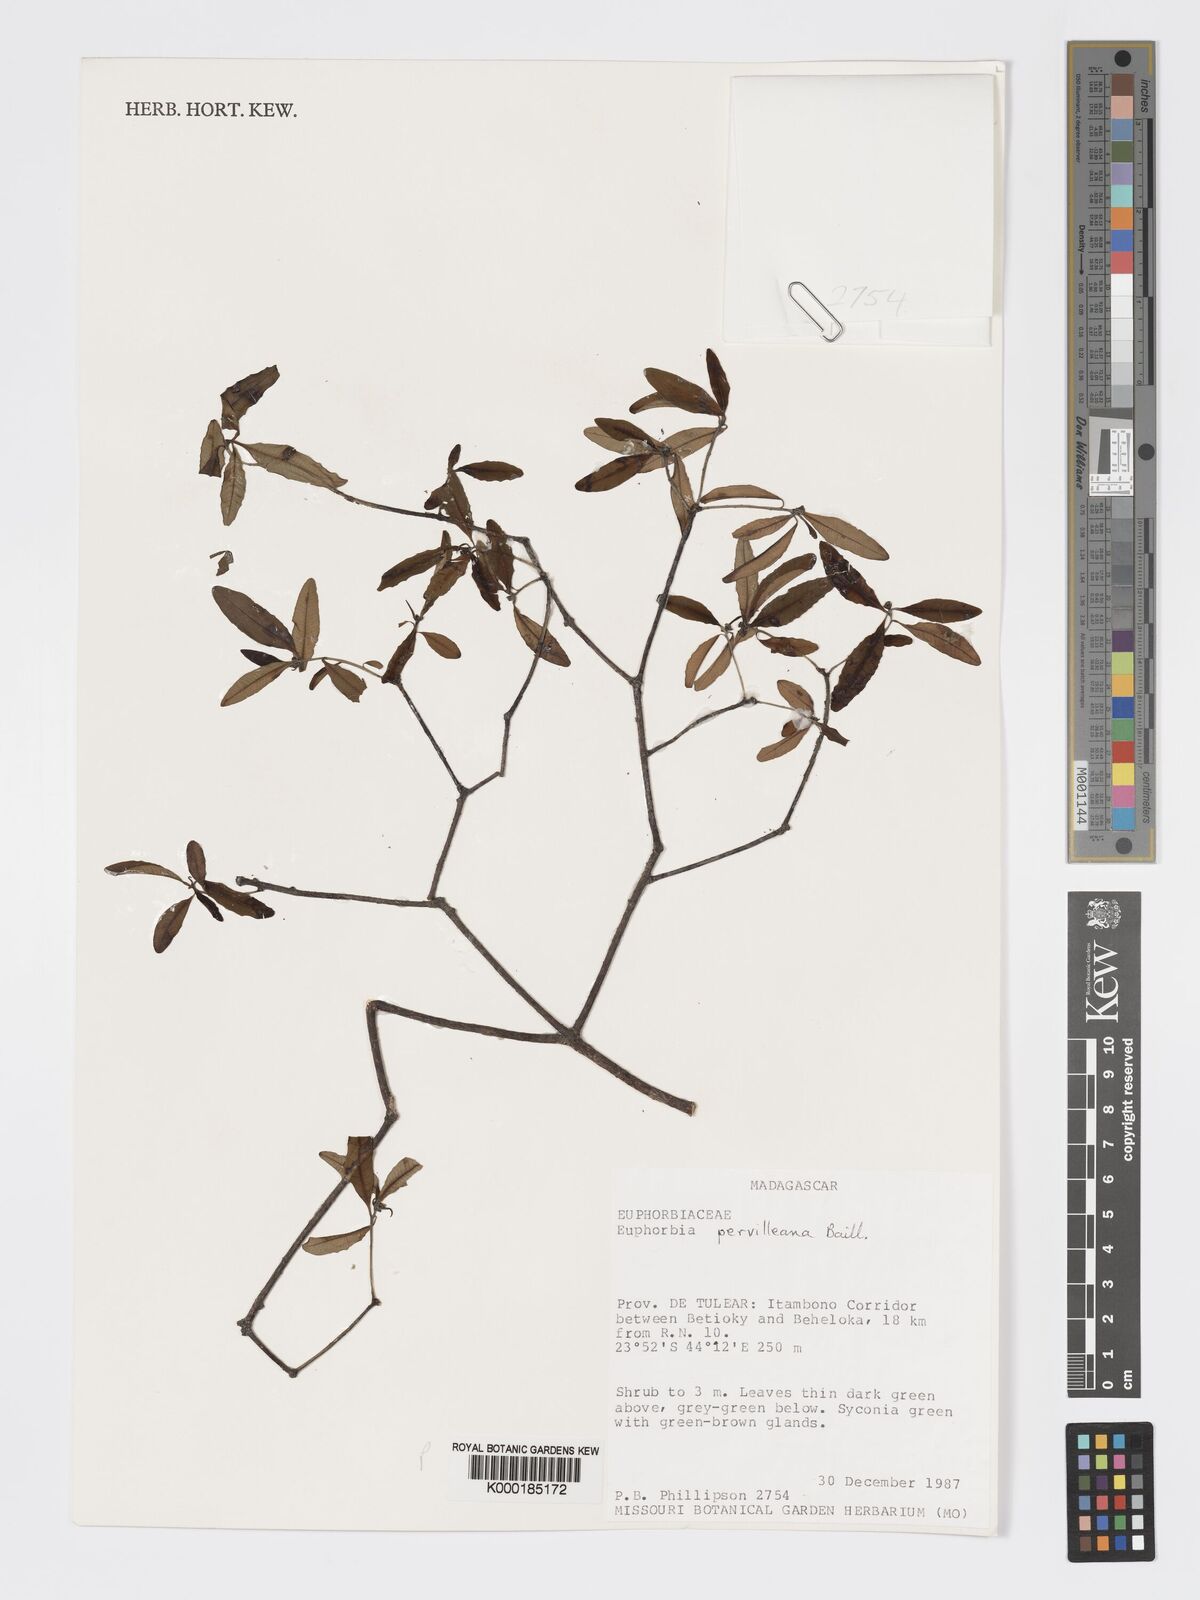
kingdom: Plantae
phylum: Tracheophyta
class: Magnoliopsida
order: Malpighiales
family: Euphorbiaceae
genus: Euphorbia
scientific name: Euphorbia pervilleana
